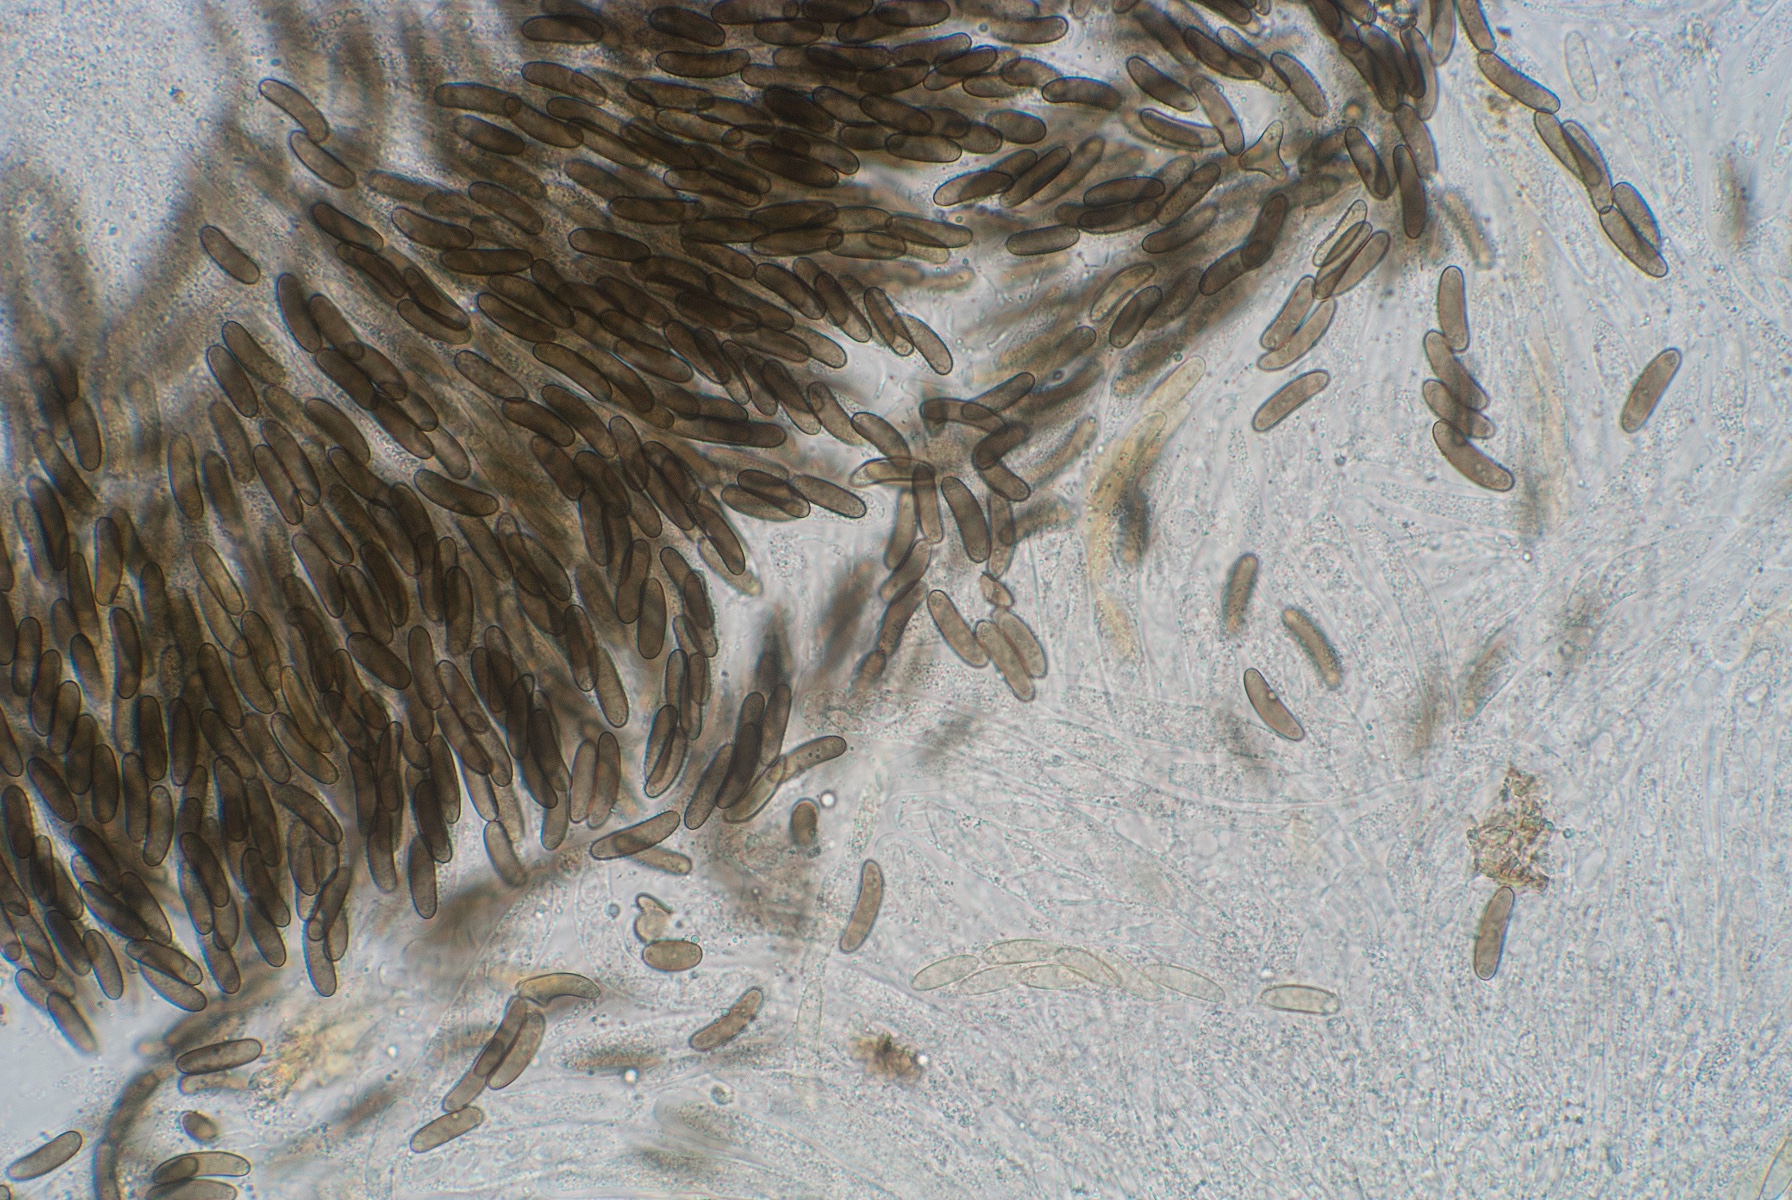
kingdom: Fungi
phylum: Ascomycota
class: Sordariomycetes
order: Xylariales
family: Diatrypaceae
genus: Quaternaria
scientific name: Quaternaria dissepta
